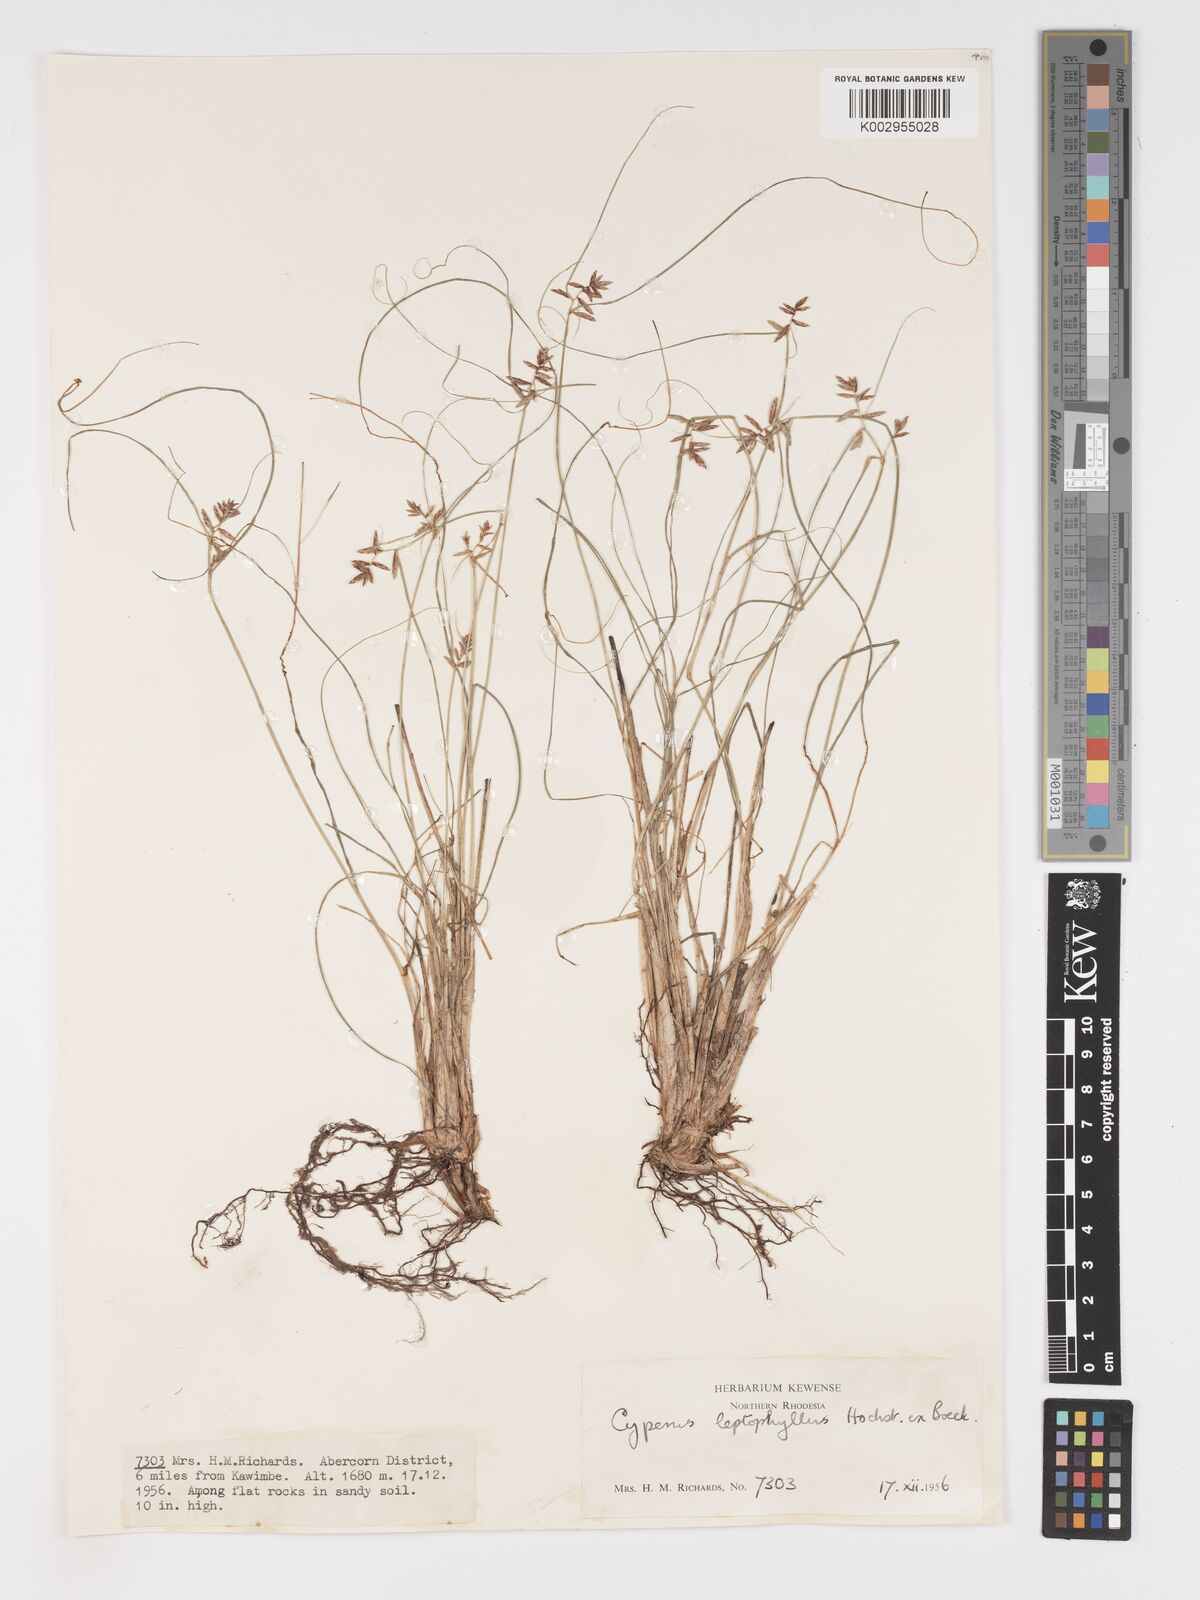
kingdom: Plantae
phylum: Tracheophyta
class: Liliopsida
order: Poales
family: Cyperaceae
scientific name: Cyperaceae
